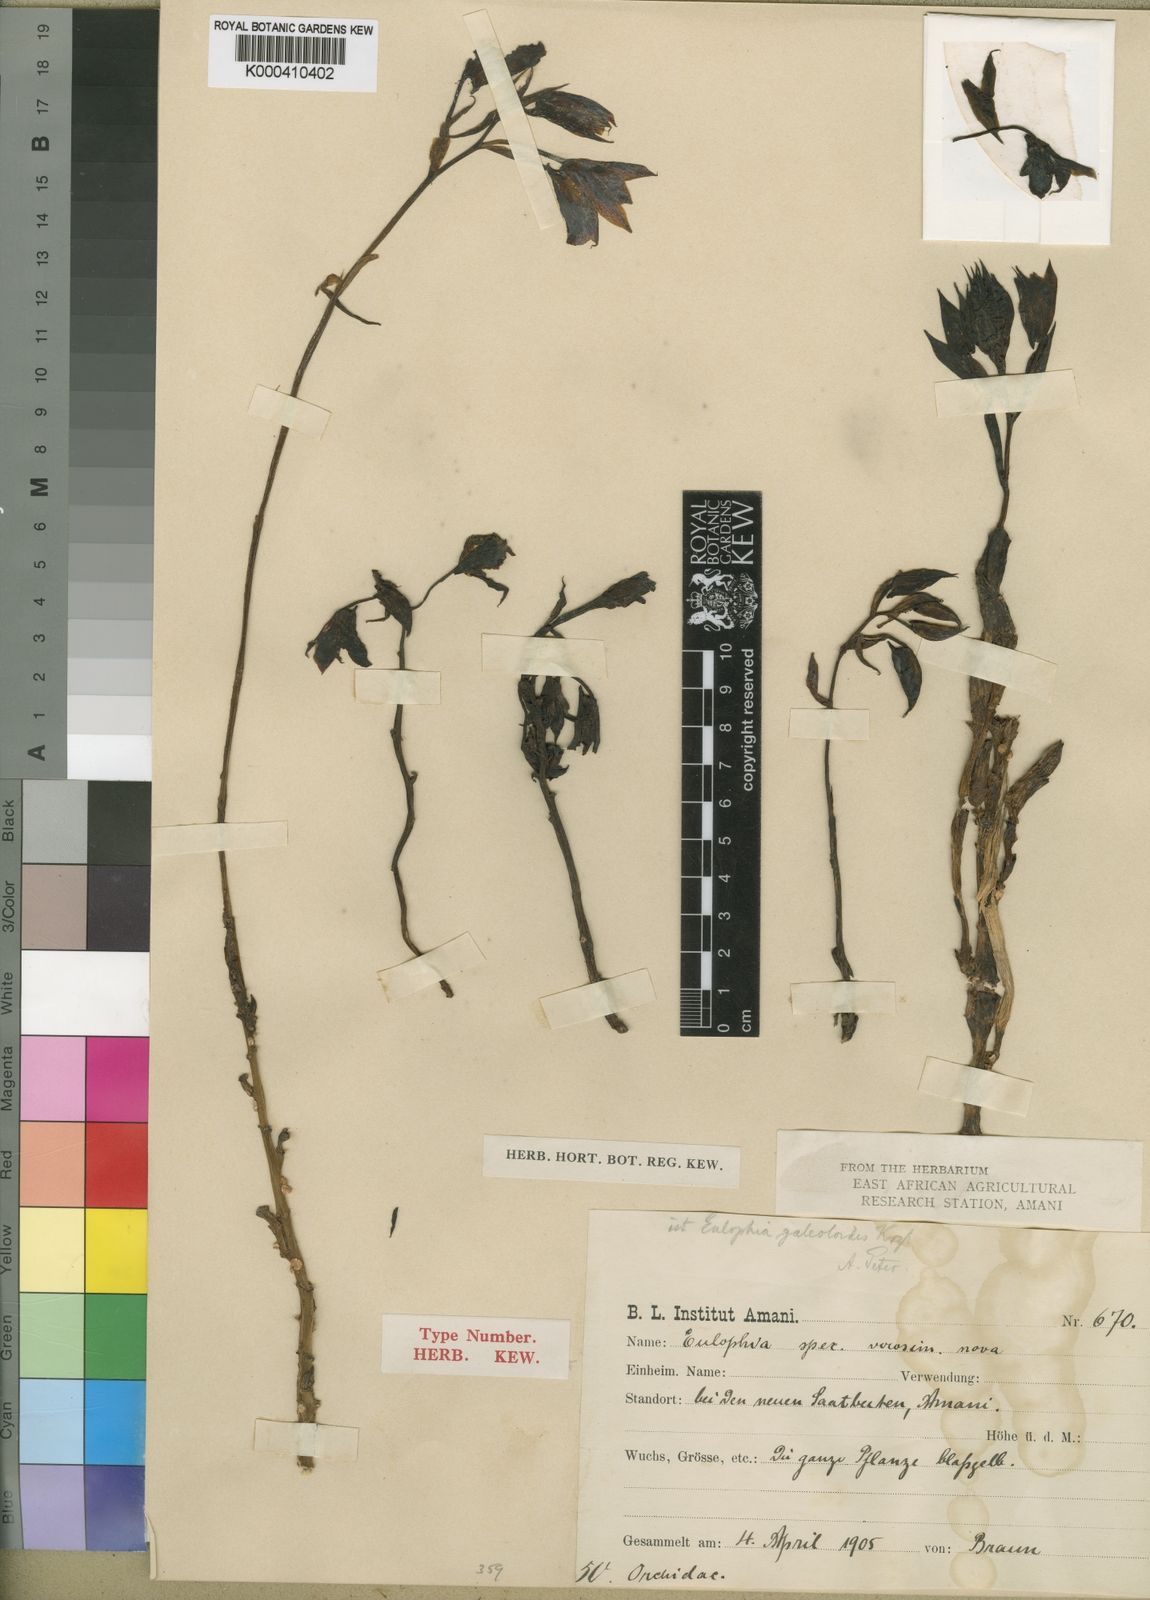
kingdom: Plantae
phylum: Tracheophyta
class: Liliopsida
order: Asparagales
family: Orchidaceae
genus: Eulophia
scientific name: Eulophia galeoloides
